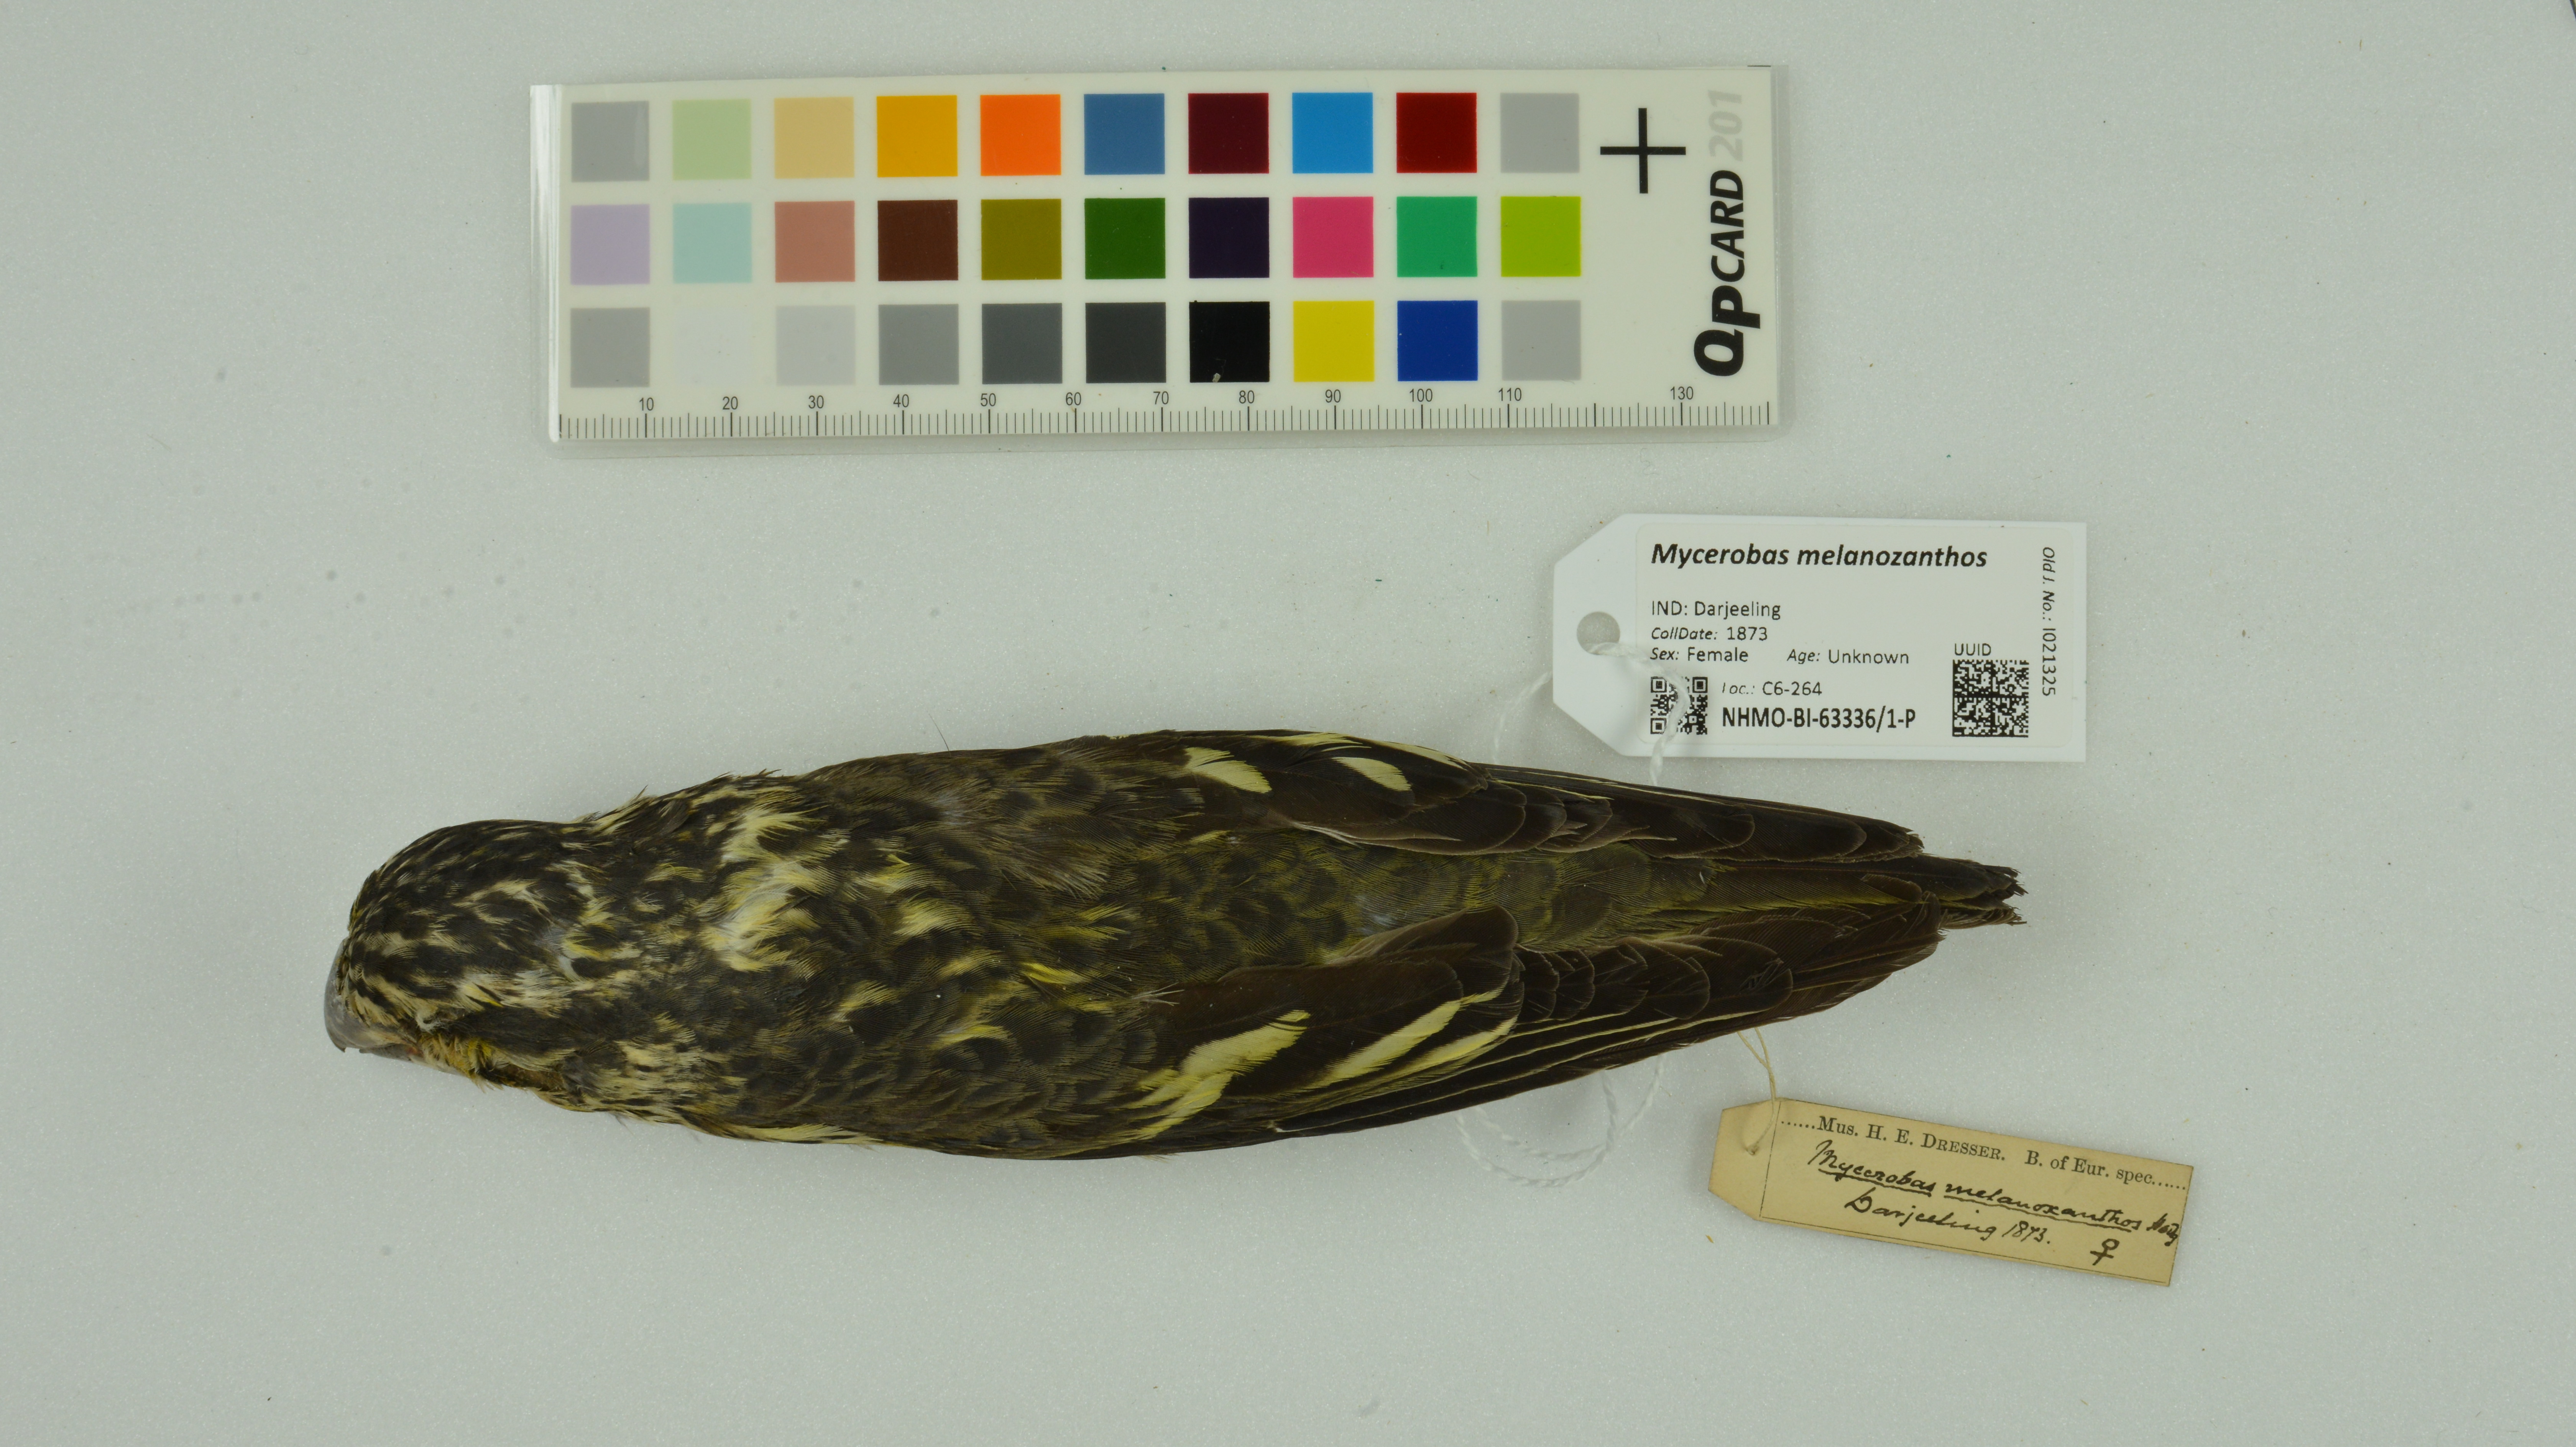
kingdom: Animalia
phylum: Chordata
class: Aves
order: Passeriformes
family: Fringillidae
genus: Mycerobas
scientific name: Mycerobas melanozanthos
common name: Spot-winged grosbeak
